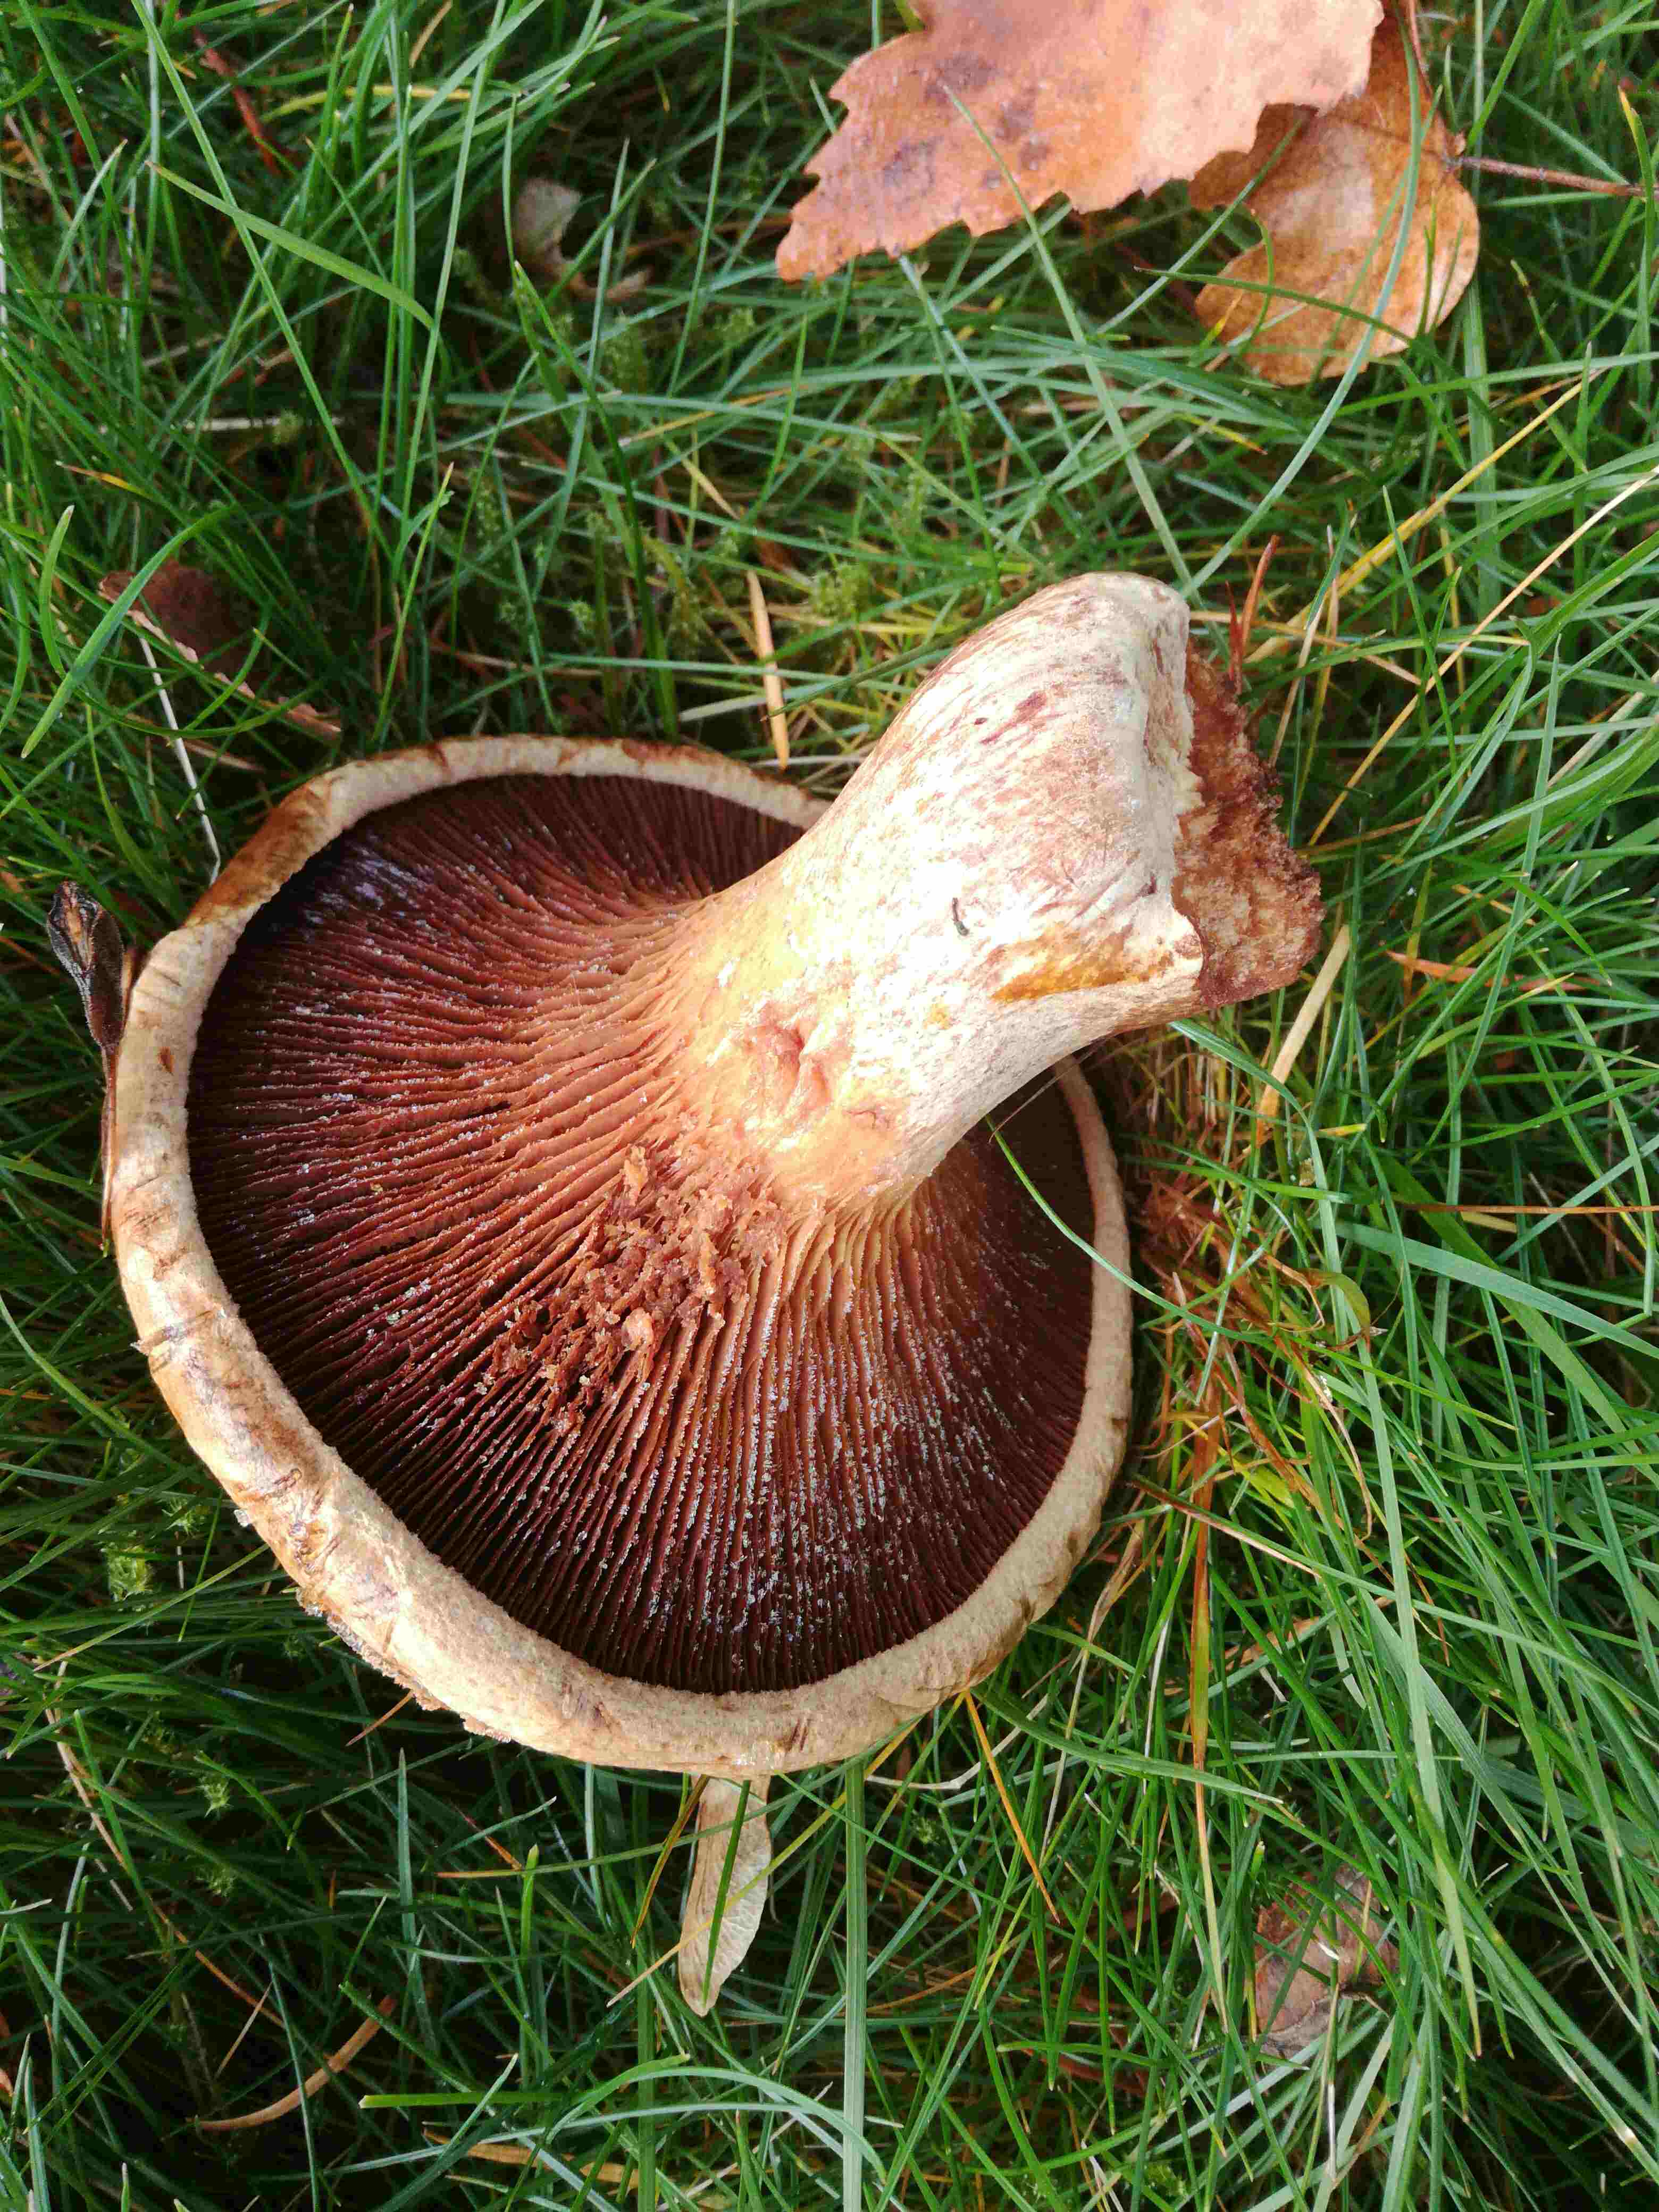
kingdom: Fungi
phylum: Basidiomycota
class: Agaricomycetes
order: Boletales
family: Paxillaceae
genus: Paxillus
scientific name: Paxillus
